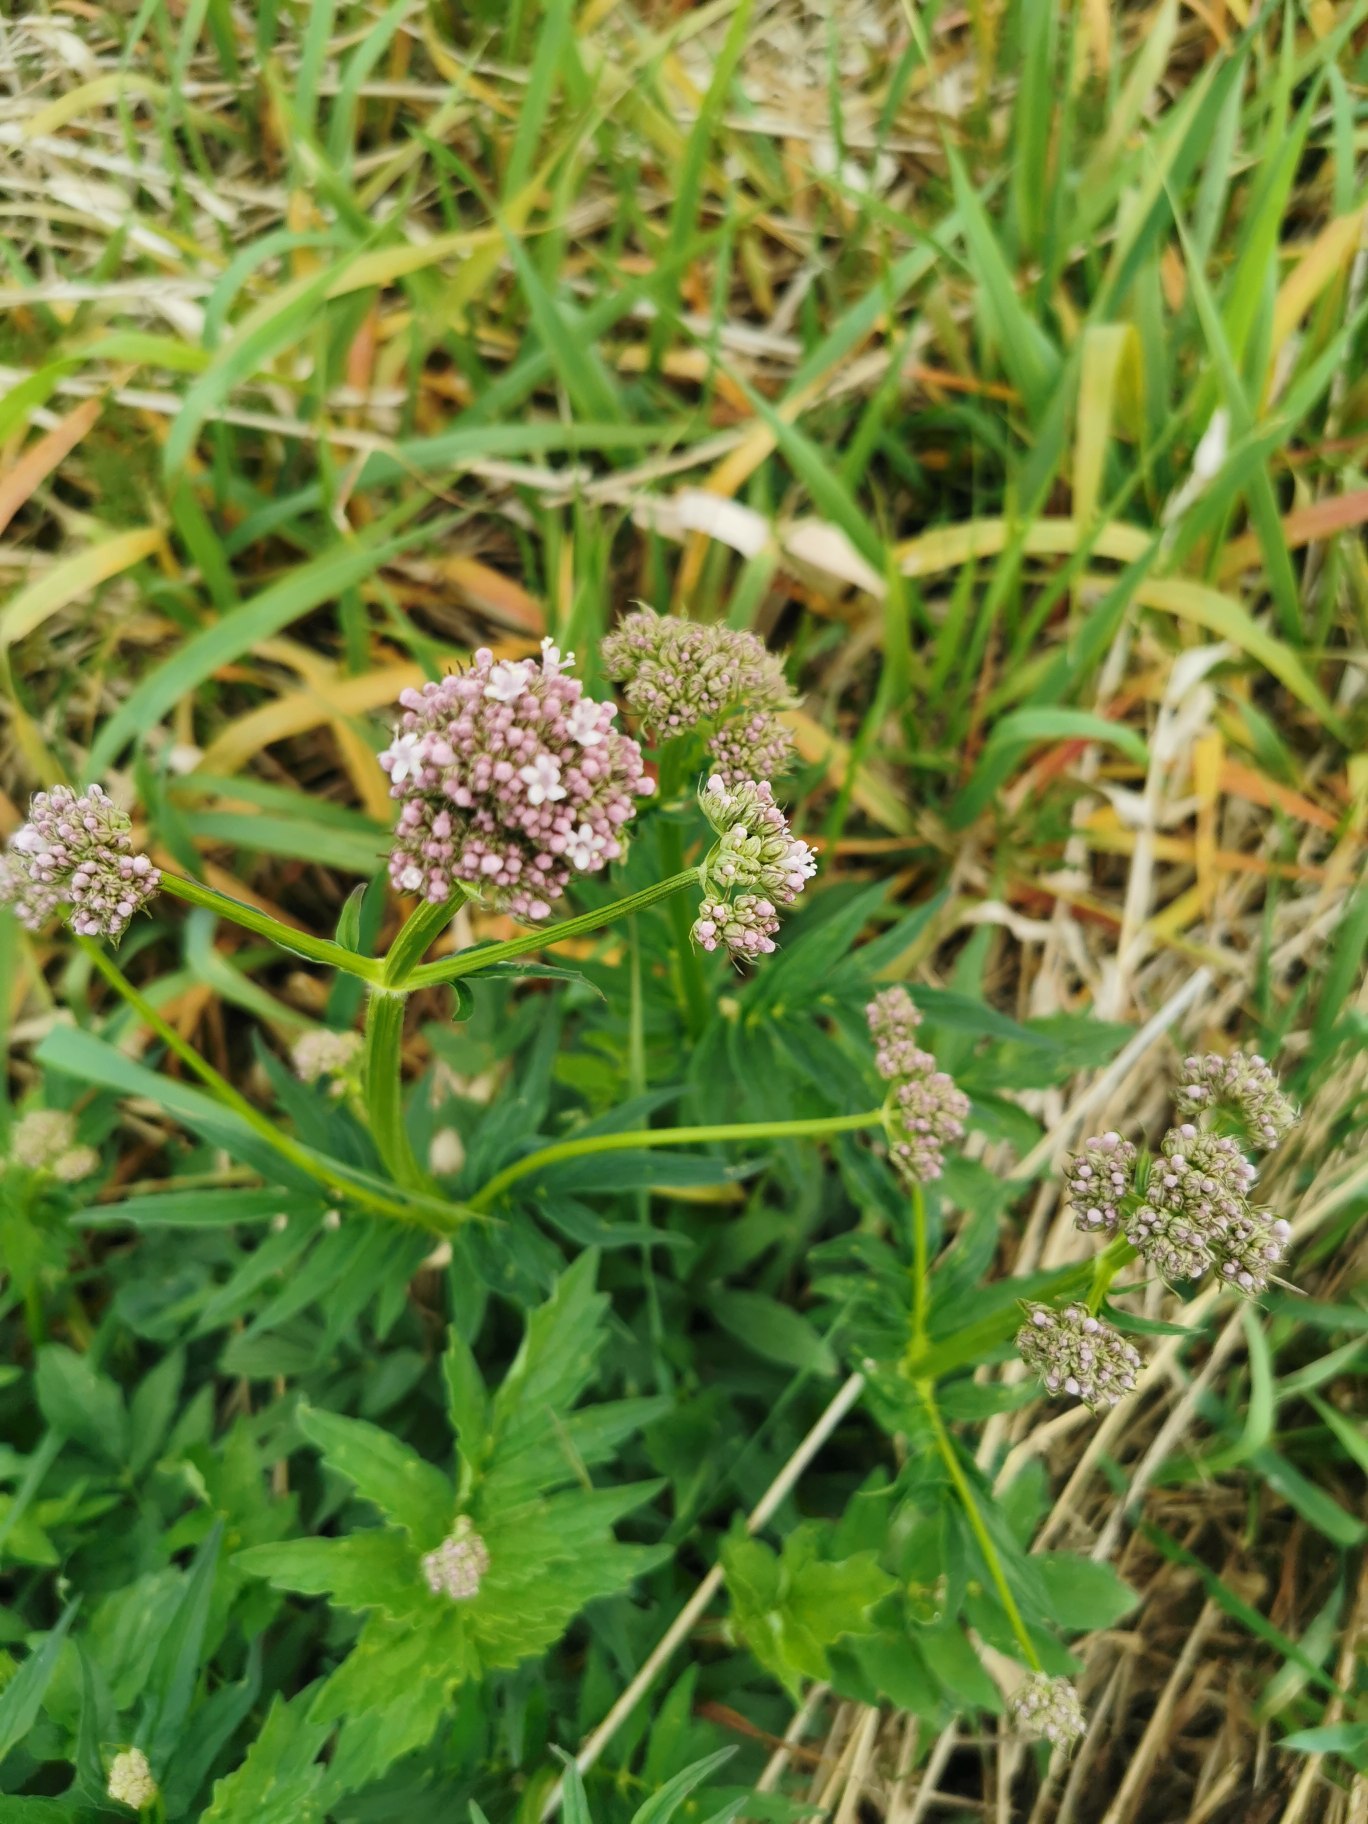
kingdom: Plantae
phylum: Tracheophyta
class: Magnoliopsida
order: Dipsacales
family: Caprifoliaceae
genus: Valeriana
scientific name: Valeriana sambucifolia
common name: Hyldebladet baldrian
